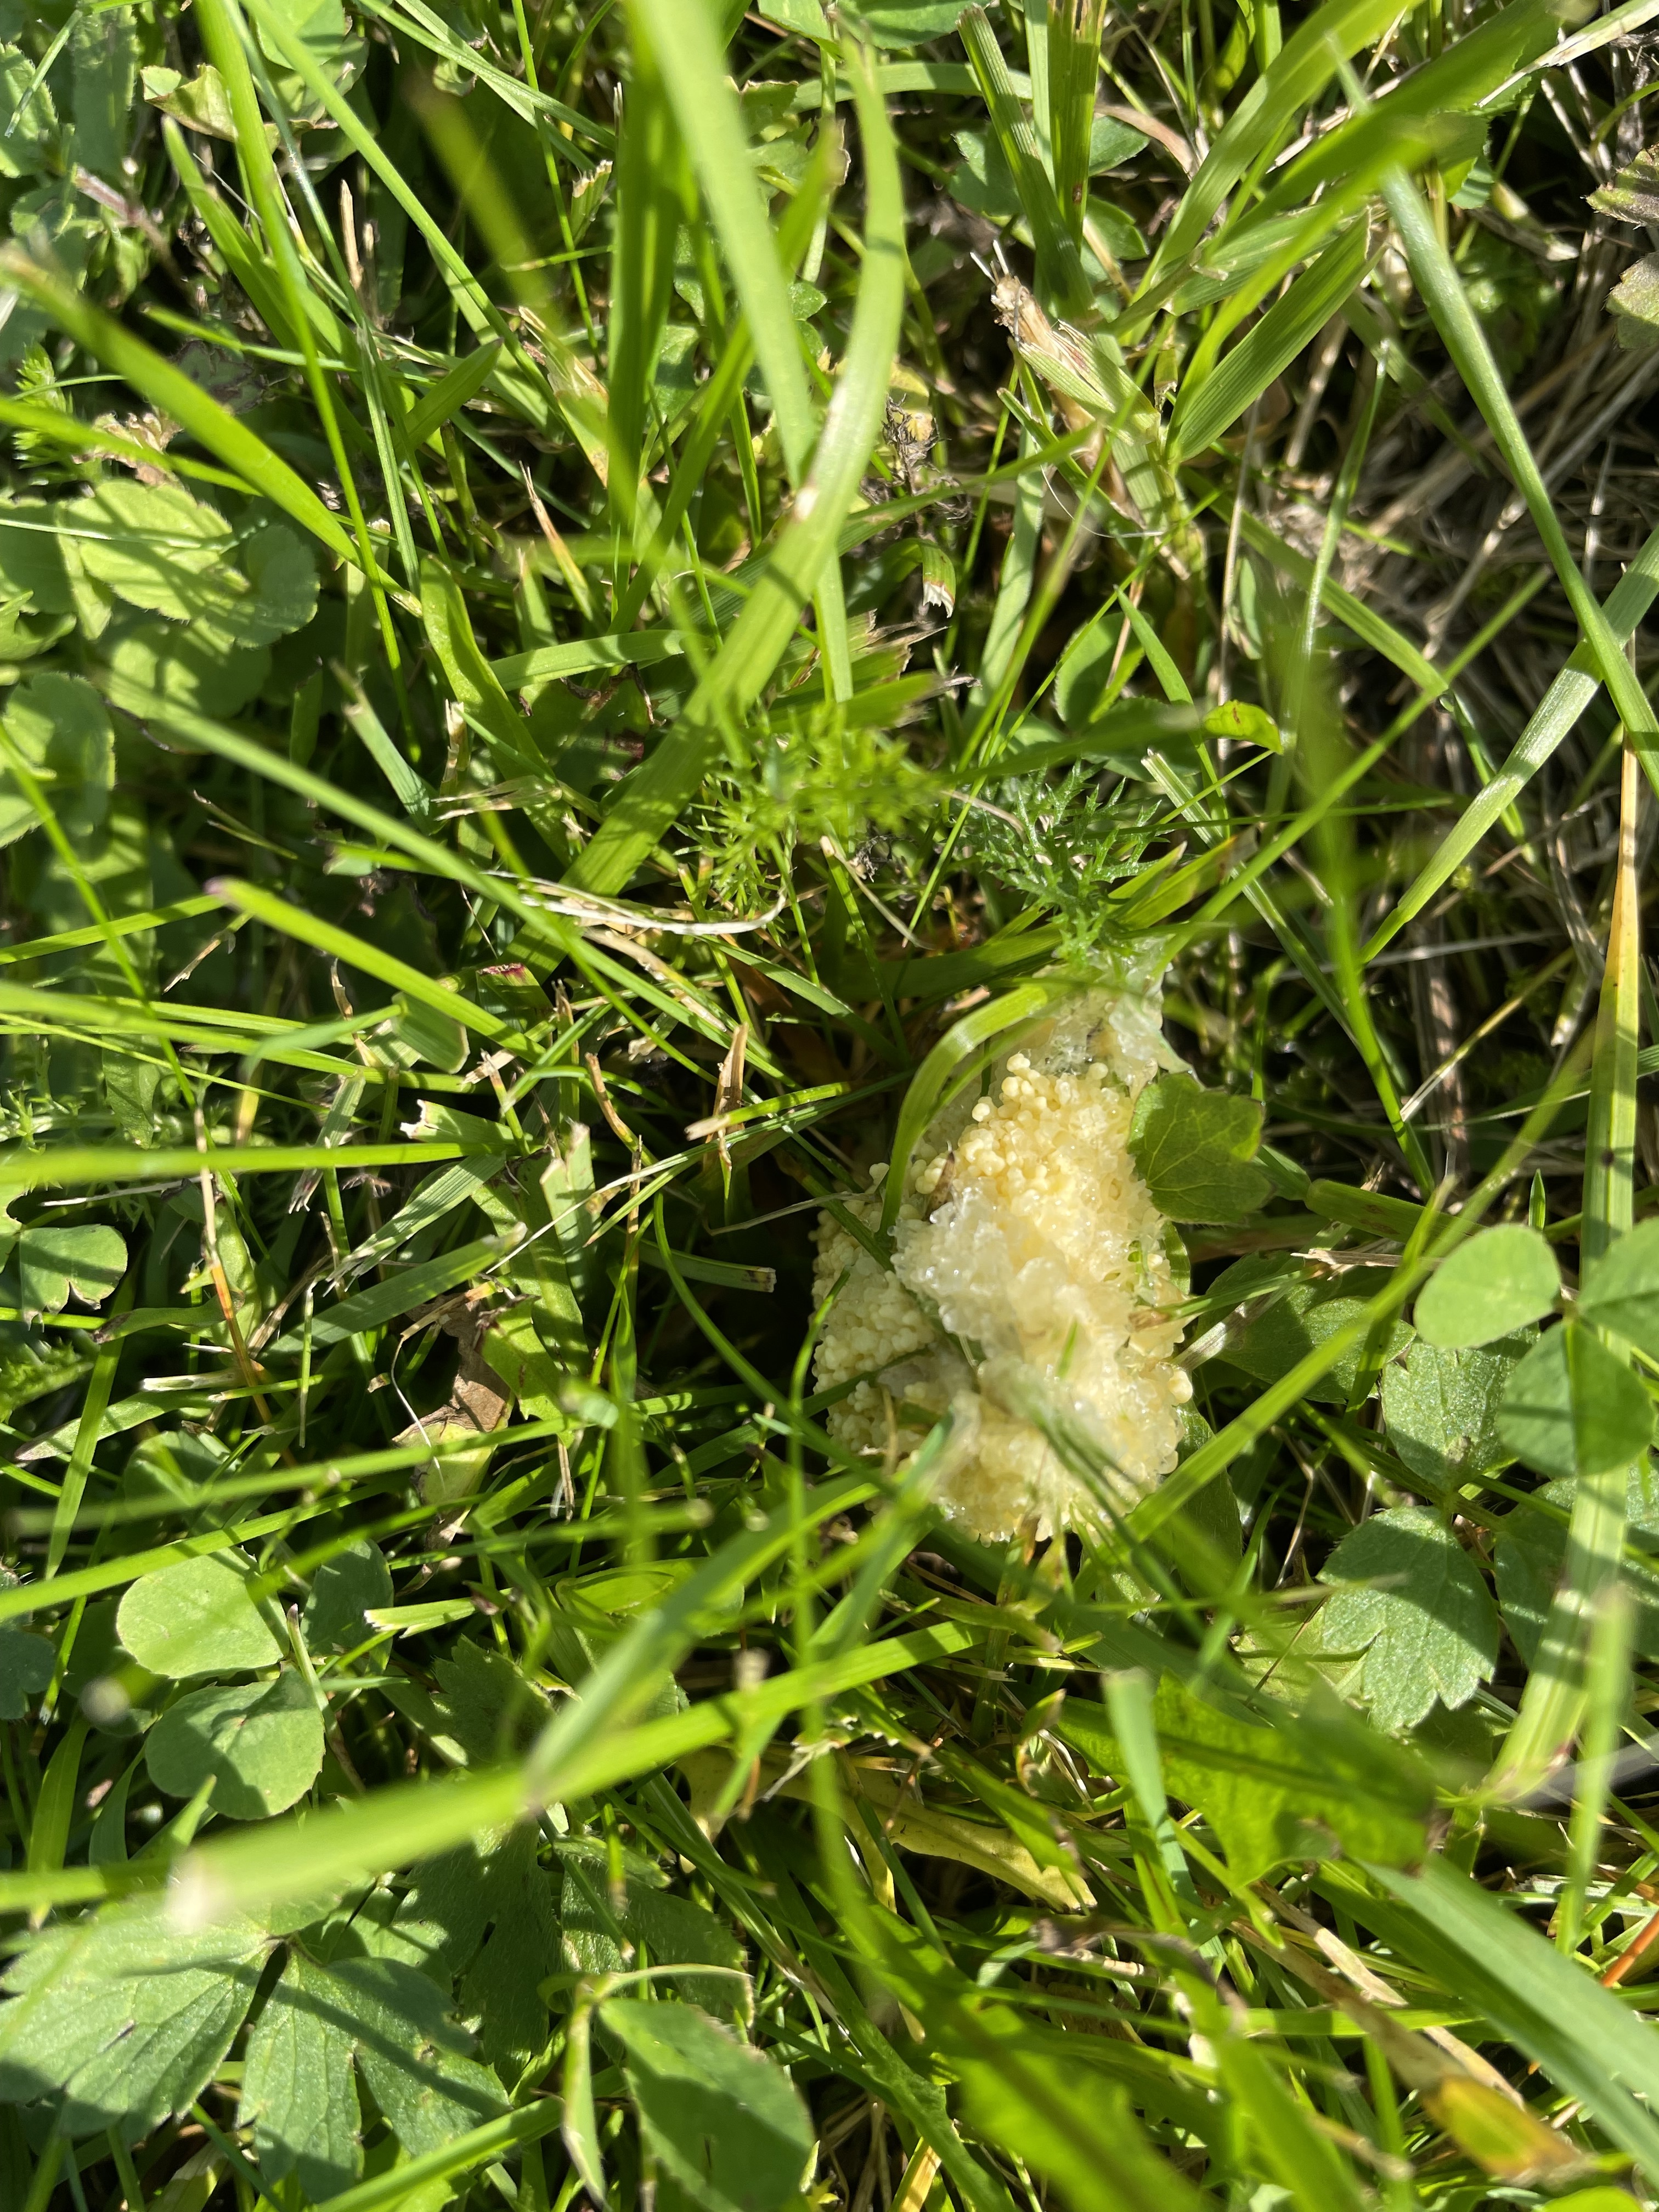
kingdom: Protozoa
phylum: Mycetozoa
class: Myxomycetes
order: Physarales
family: Physaraceae
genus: Fuligo
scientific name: Fuligo septica
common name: Dog vomit slime mold
